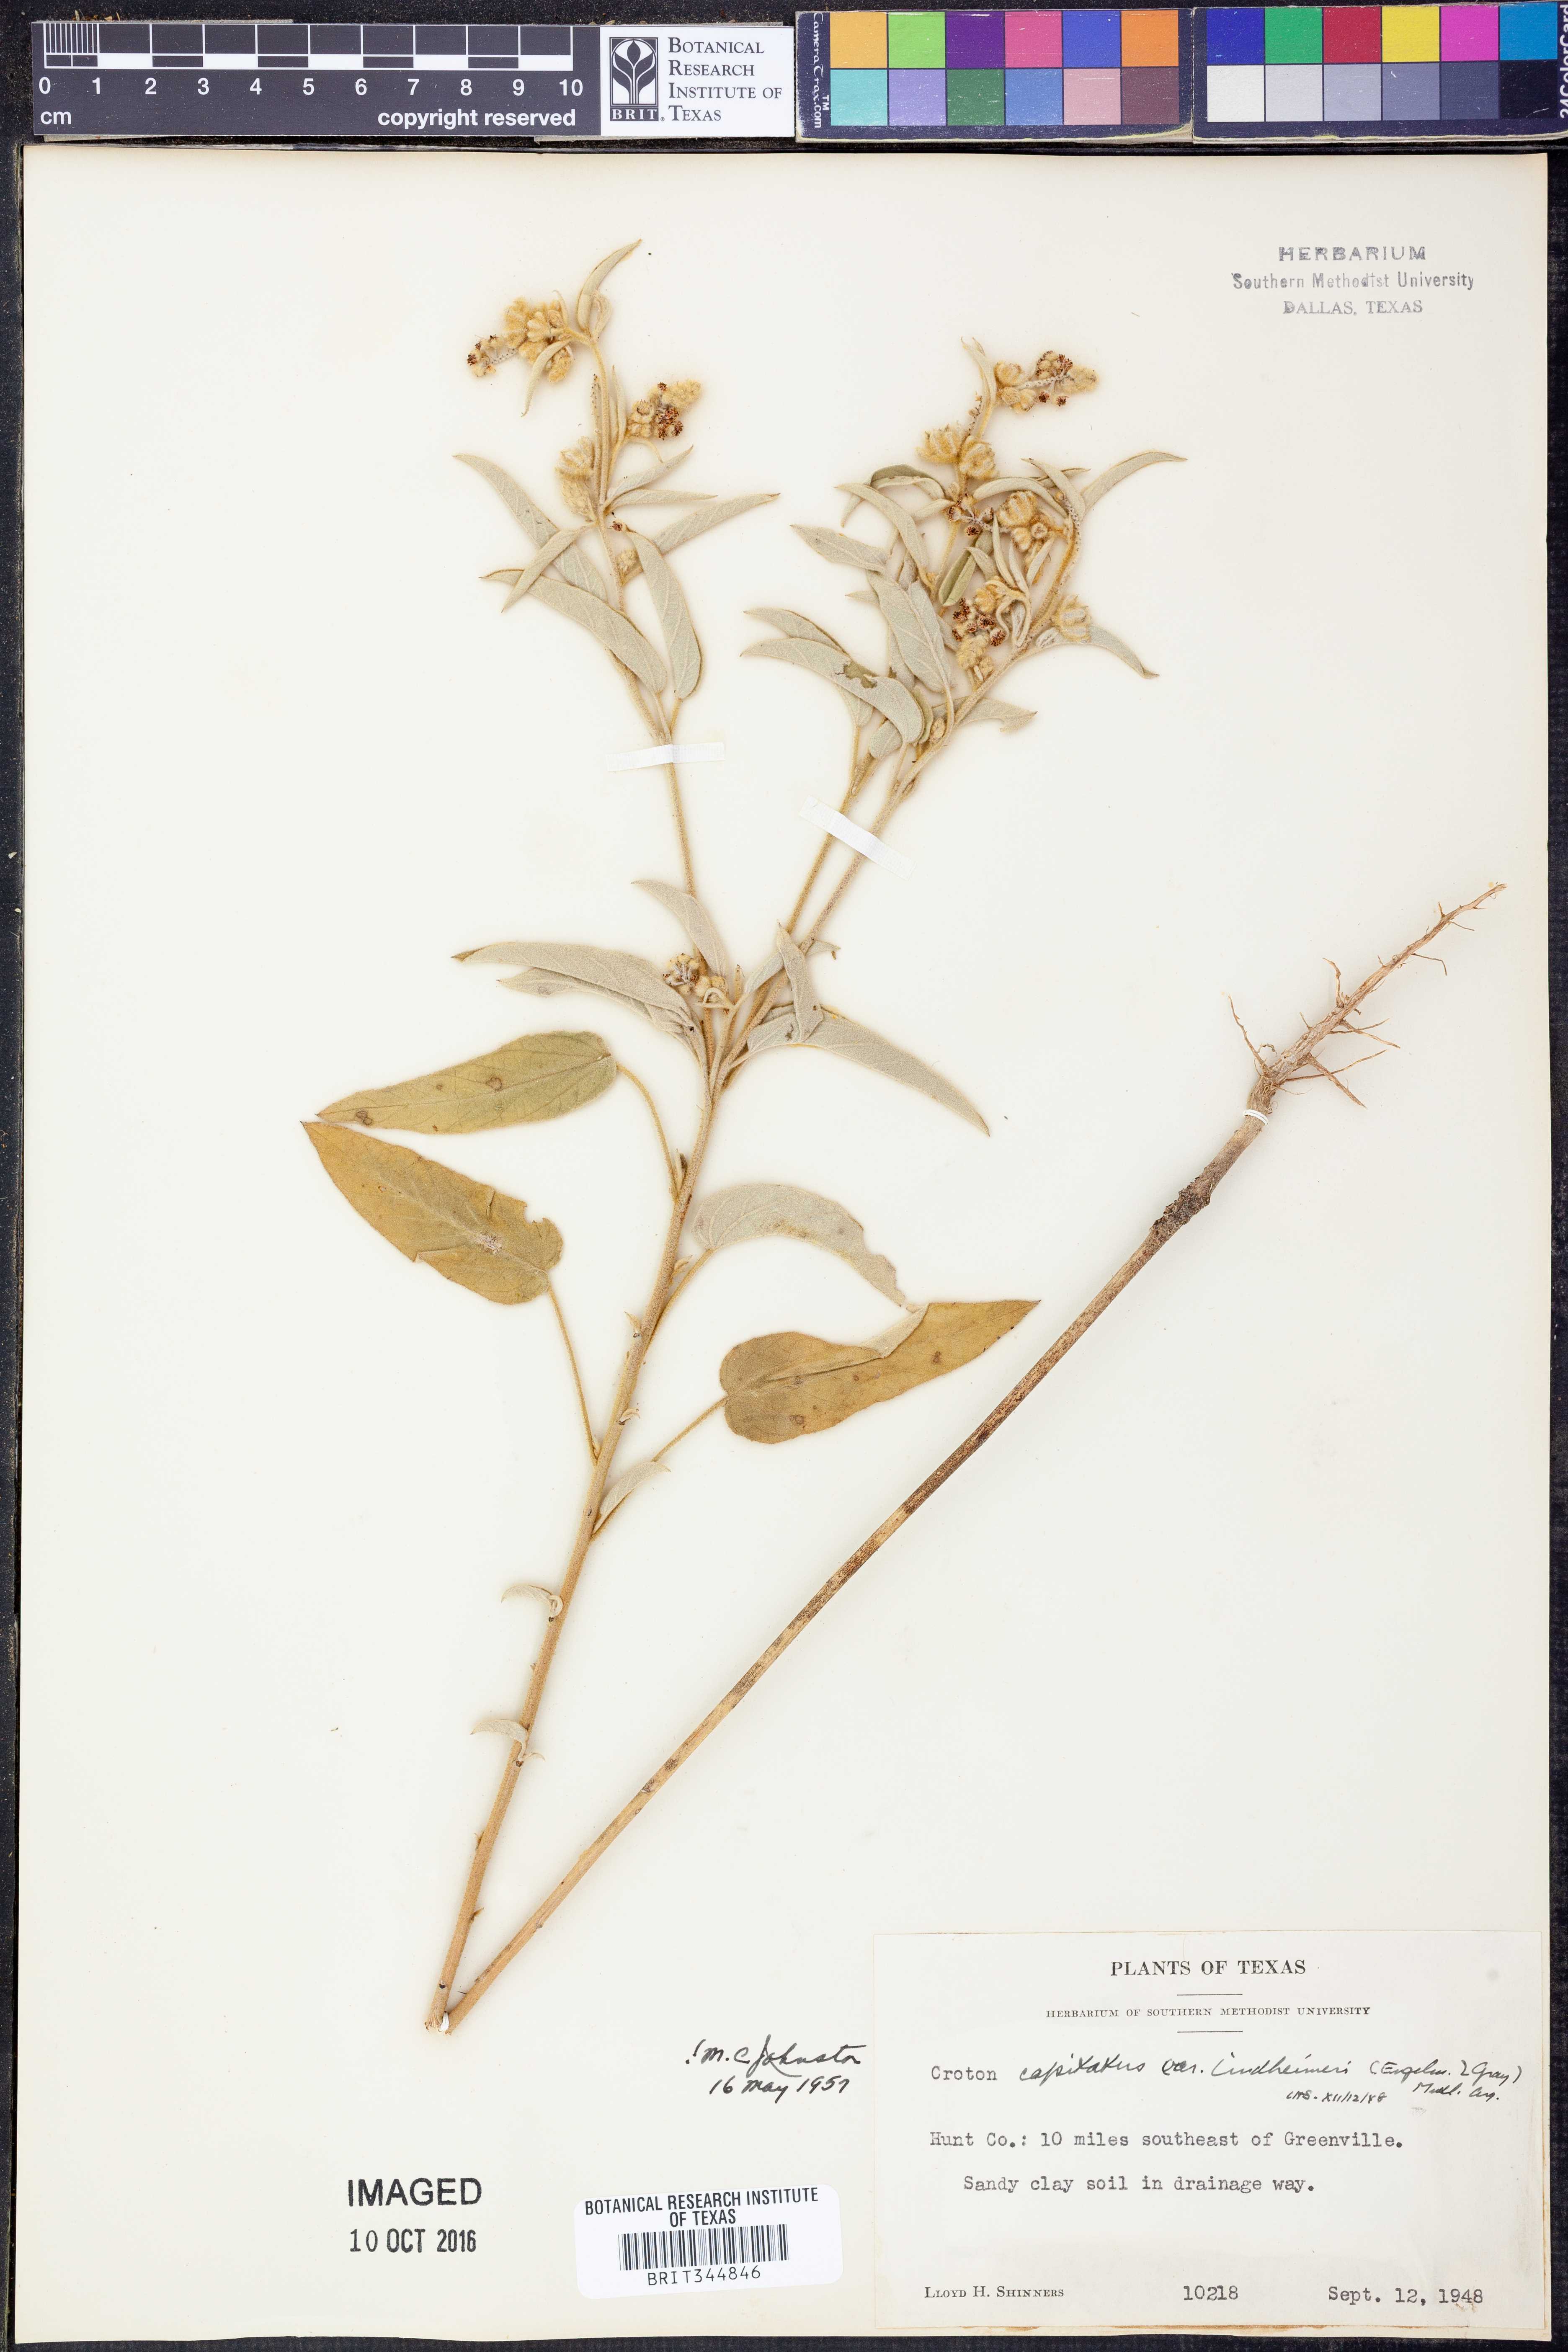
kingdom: Plantae
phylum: Tracheophyta
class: Magnoliopsida
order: Malpighiales
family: Euphorbiaceae
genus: Croton
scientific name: Croton lindheimeri
